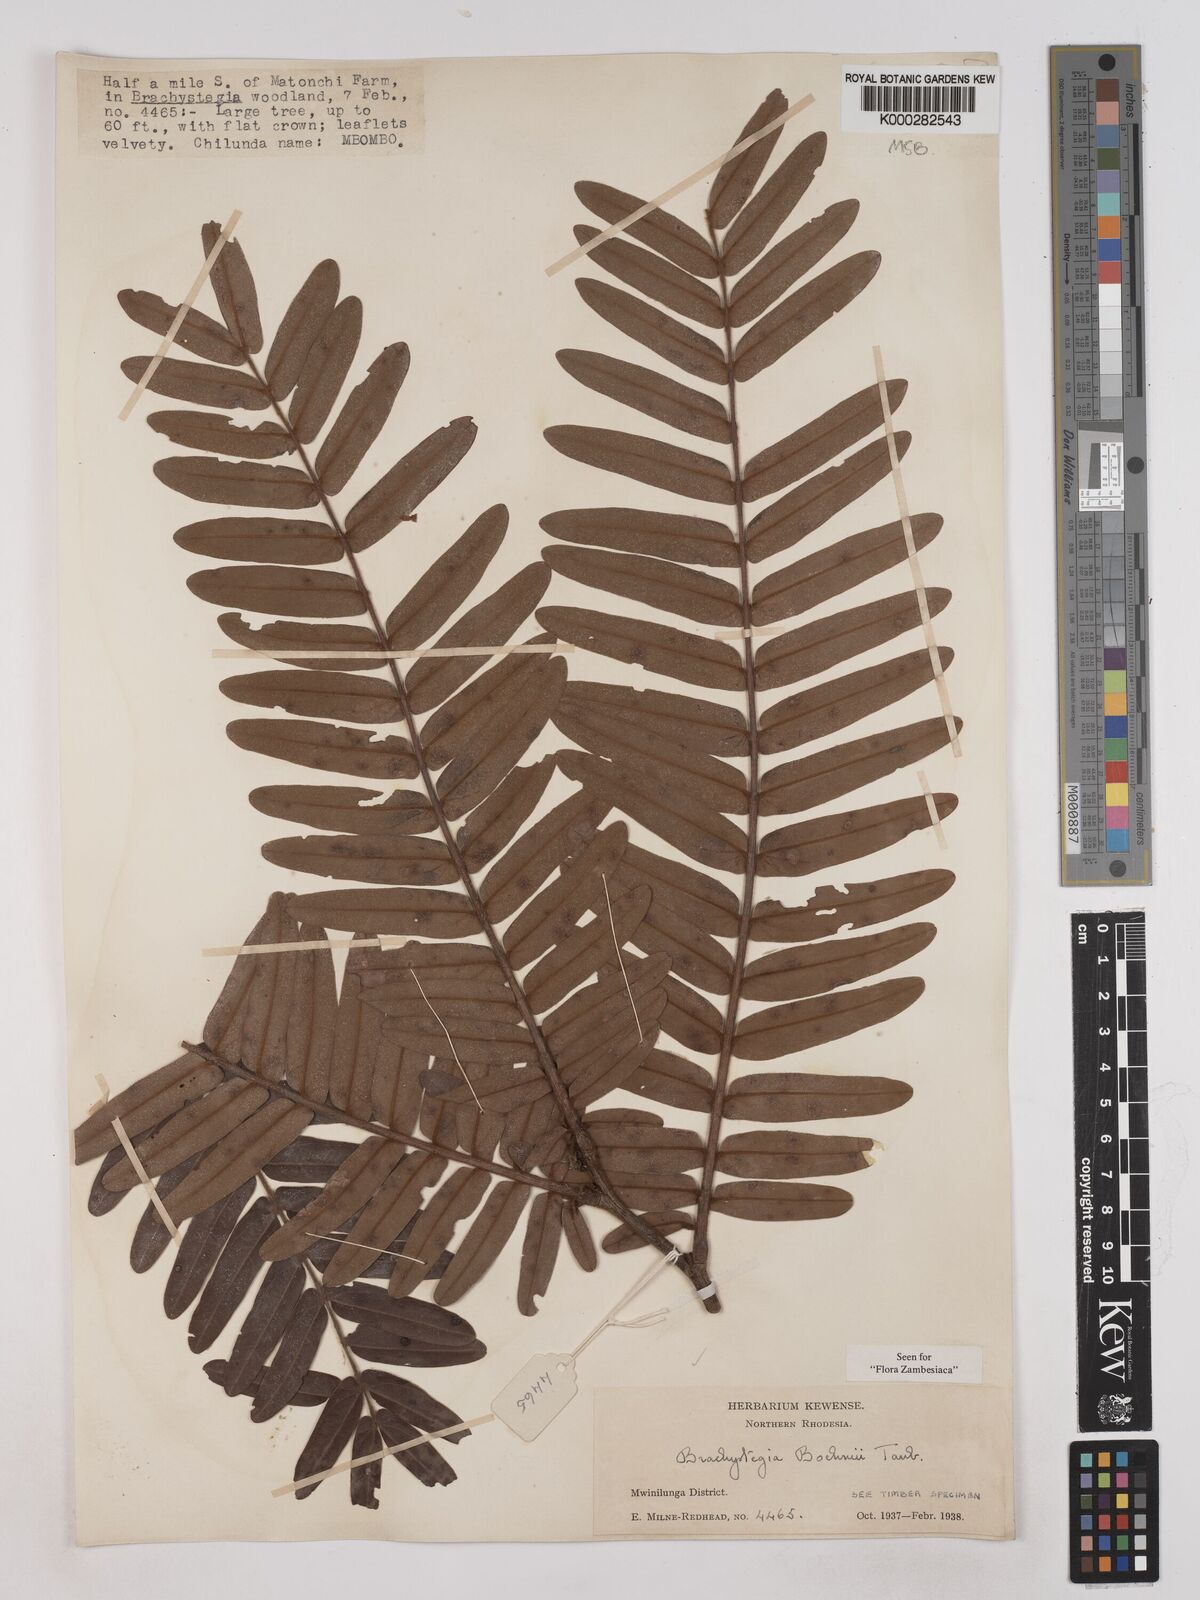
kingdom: Plantae
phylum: Tracheophyta
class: Magnoliopsida
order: Fabales
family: Fabaceae
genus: Brachystegia
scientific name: Brachystegia boehmii
